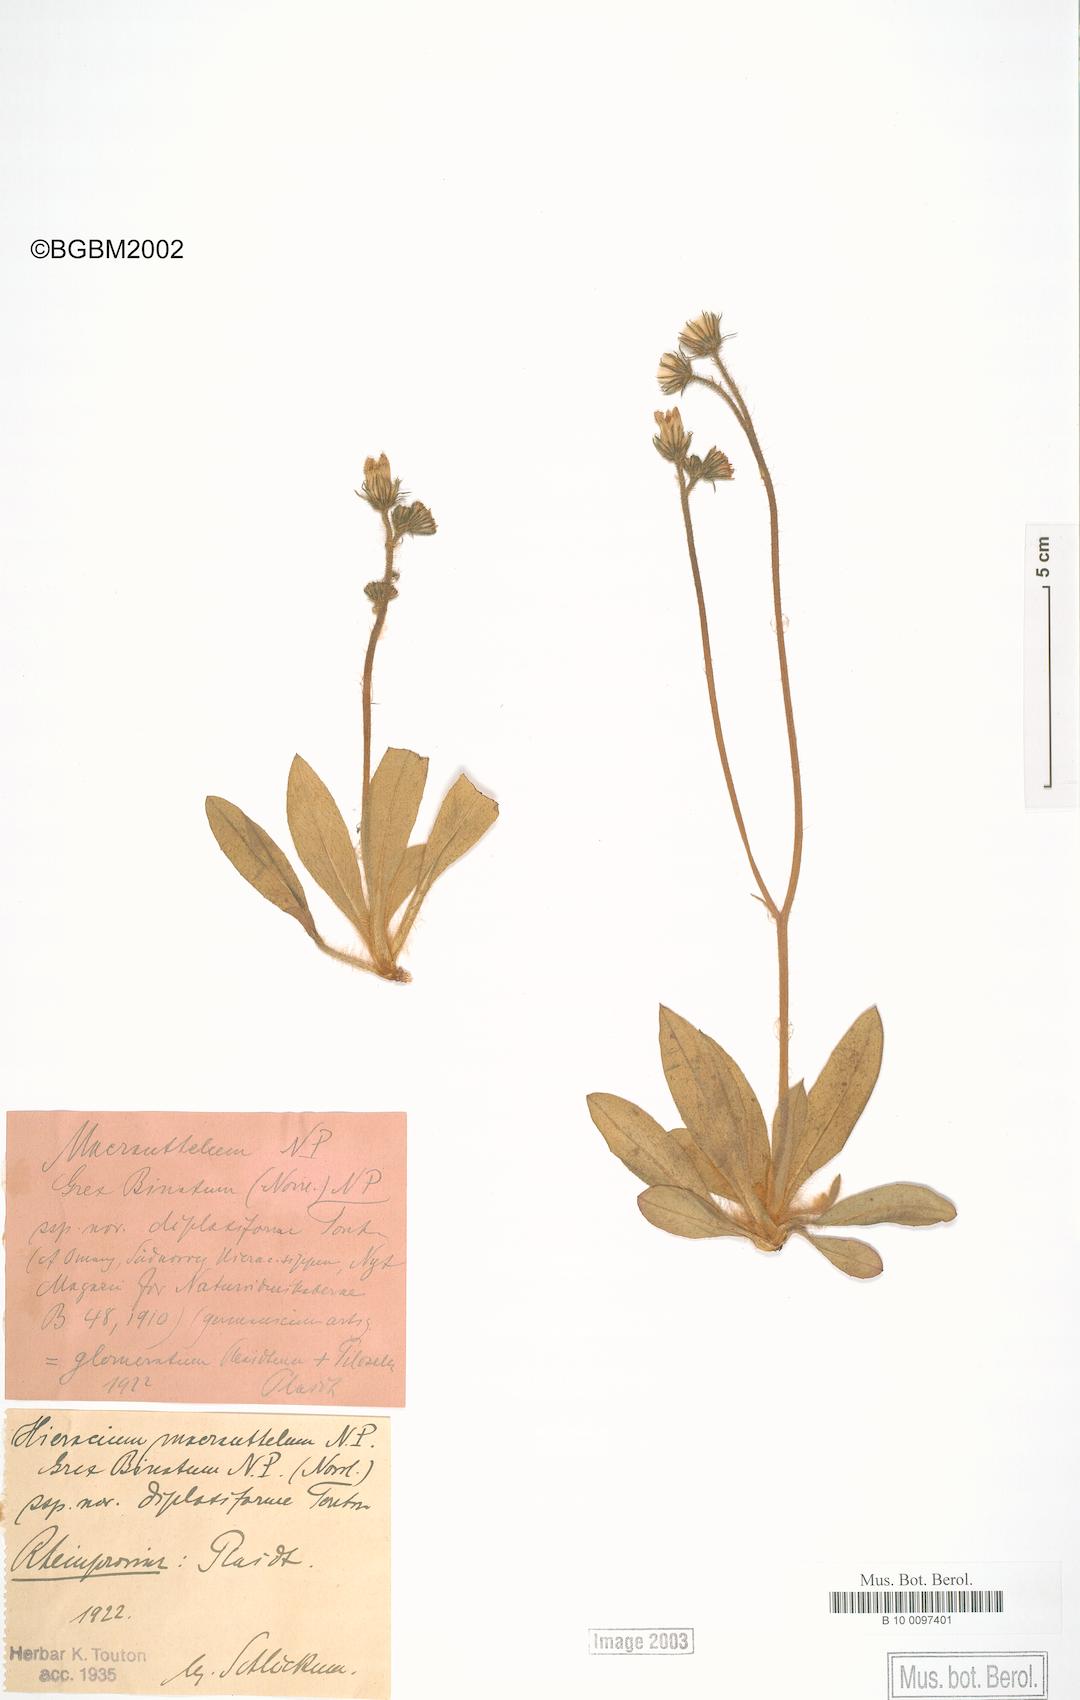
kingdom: Plantae
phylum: Tracheophyta
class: Magnoliopsida
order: Asterales
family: Asteraceae
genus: Pilosella
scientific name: Pilosella macranthela
